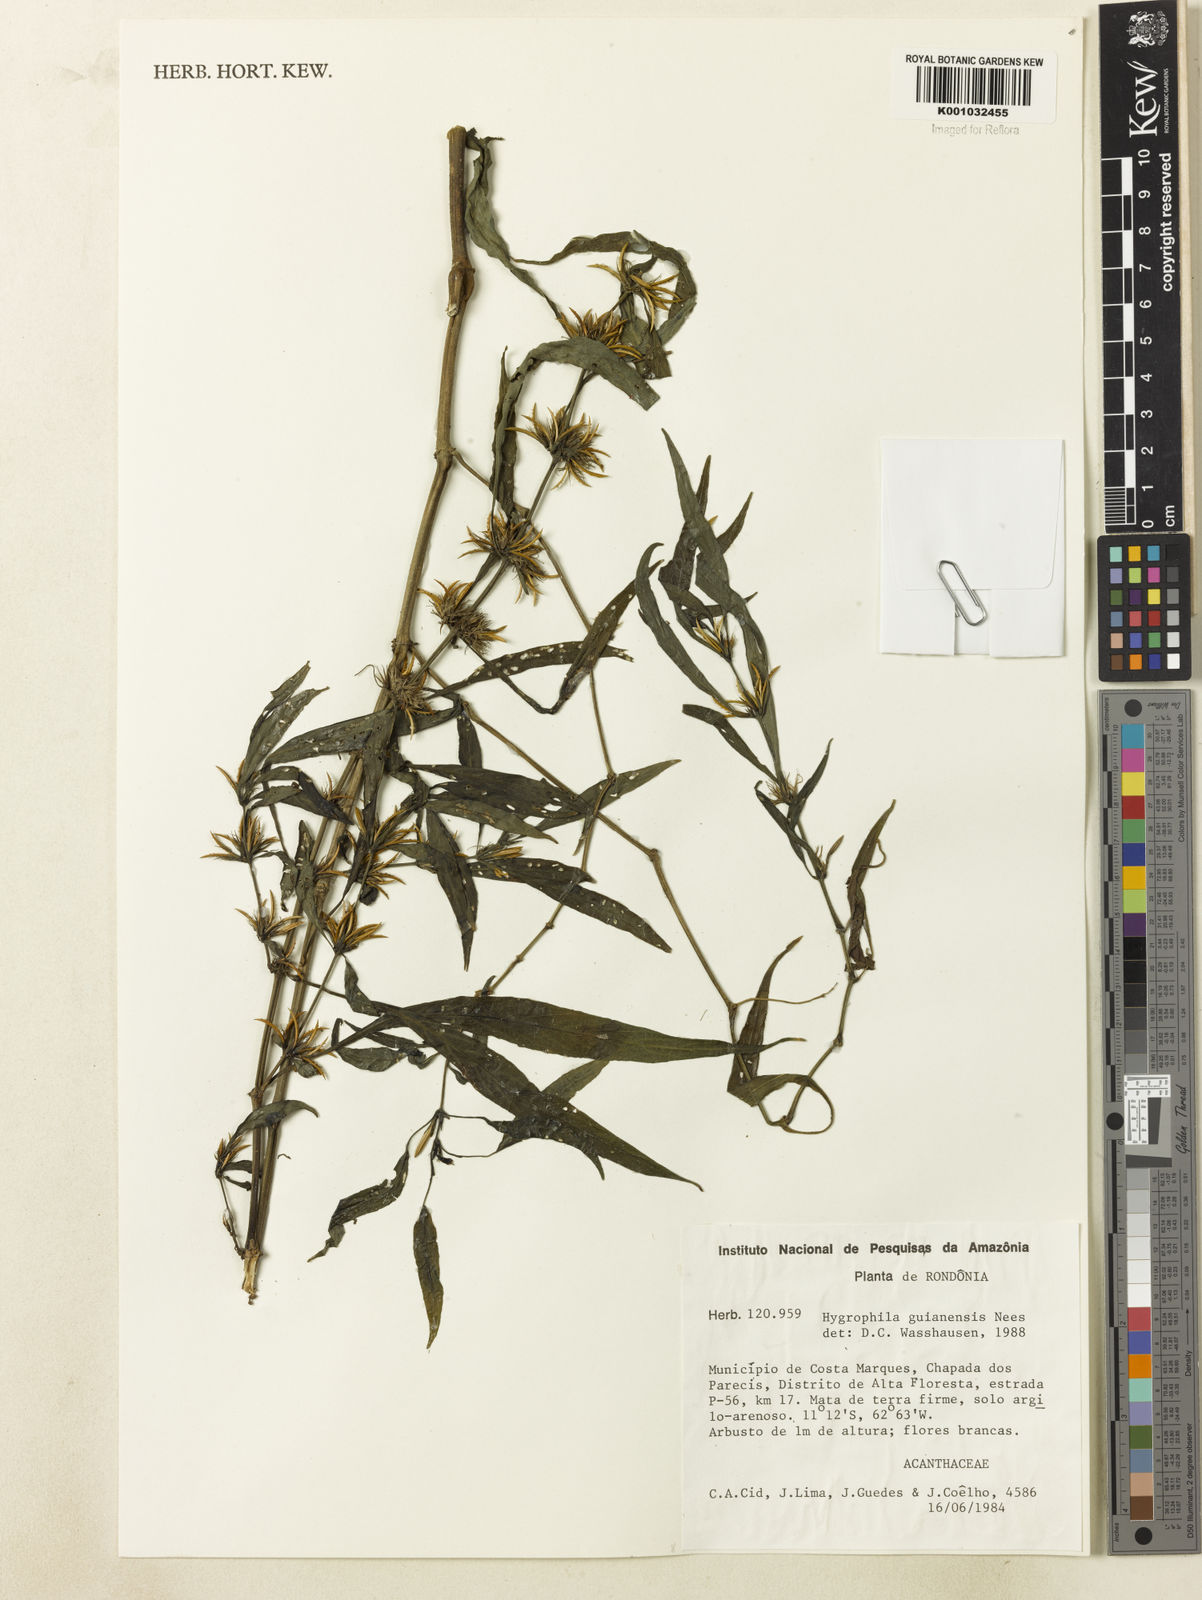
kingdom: Plantae
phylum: Tracheophyta
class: Magnoliopsida
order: Lamiales
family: Acanthaceae
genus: Hygrophila
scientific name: Hygrophila costata
